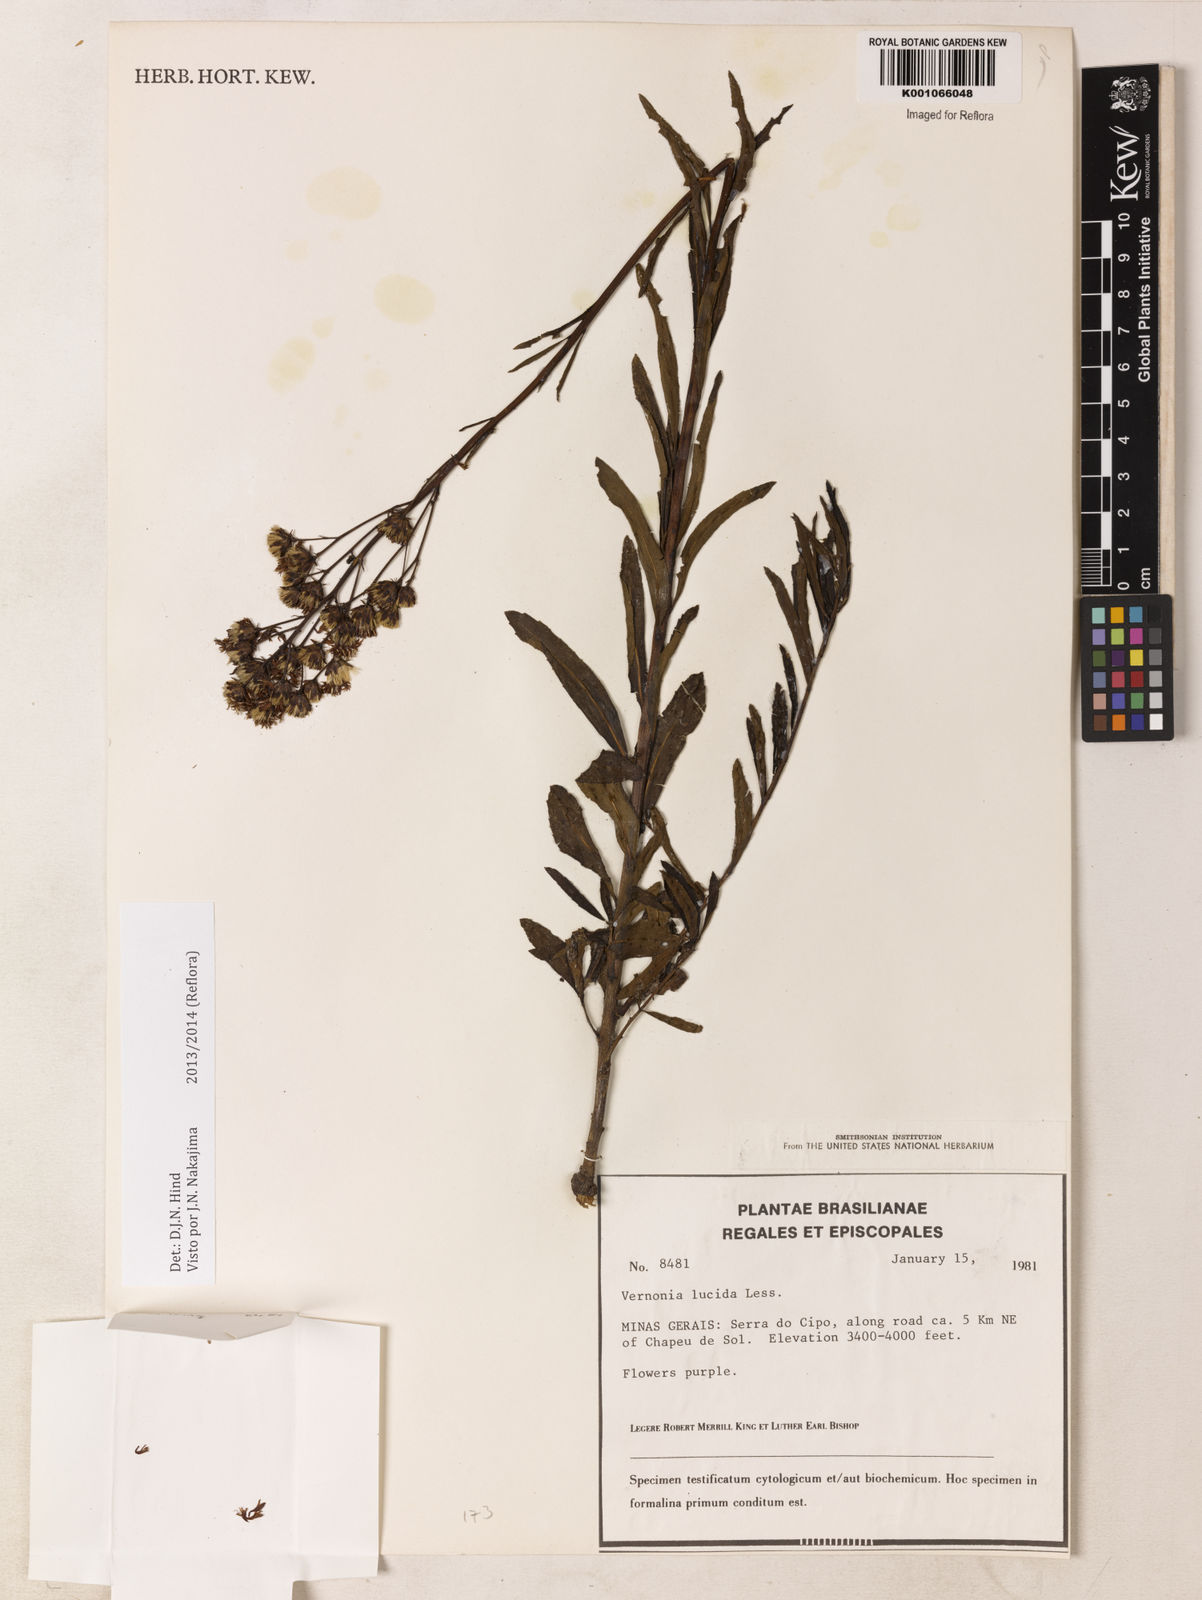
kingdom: Plantae
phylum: Tracheophyta
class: Magnoliopsida
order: Asterales
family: Asteraceae
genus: Vernonanthura
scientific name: Vernonanthura lucida
